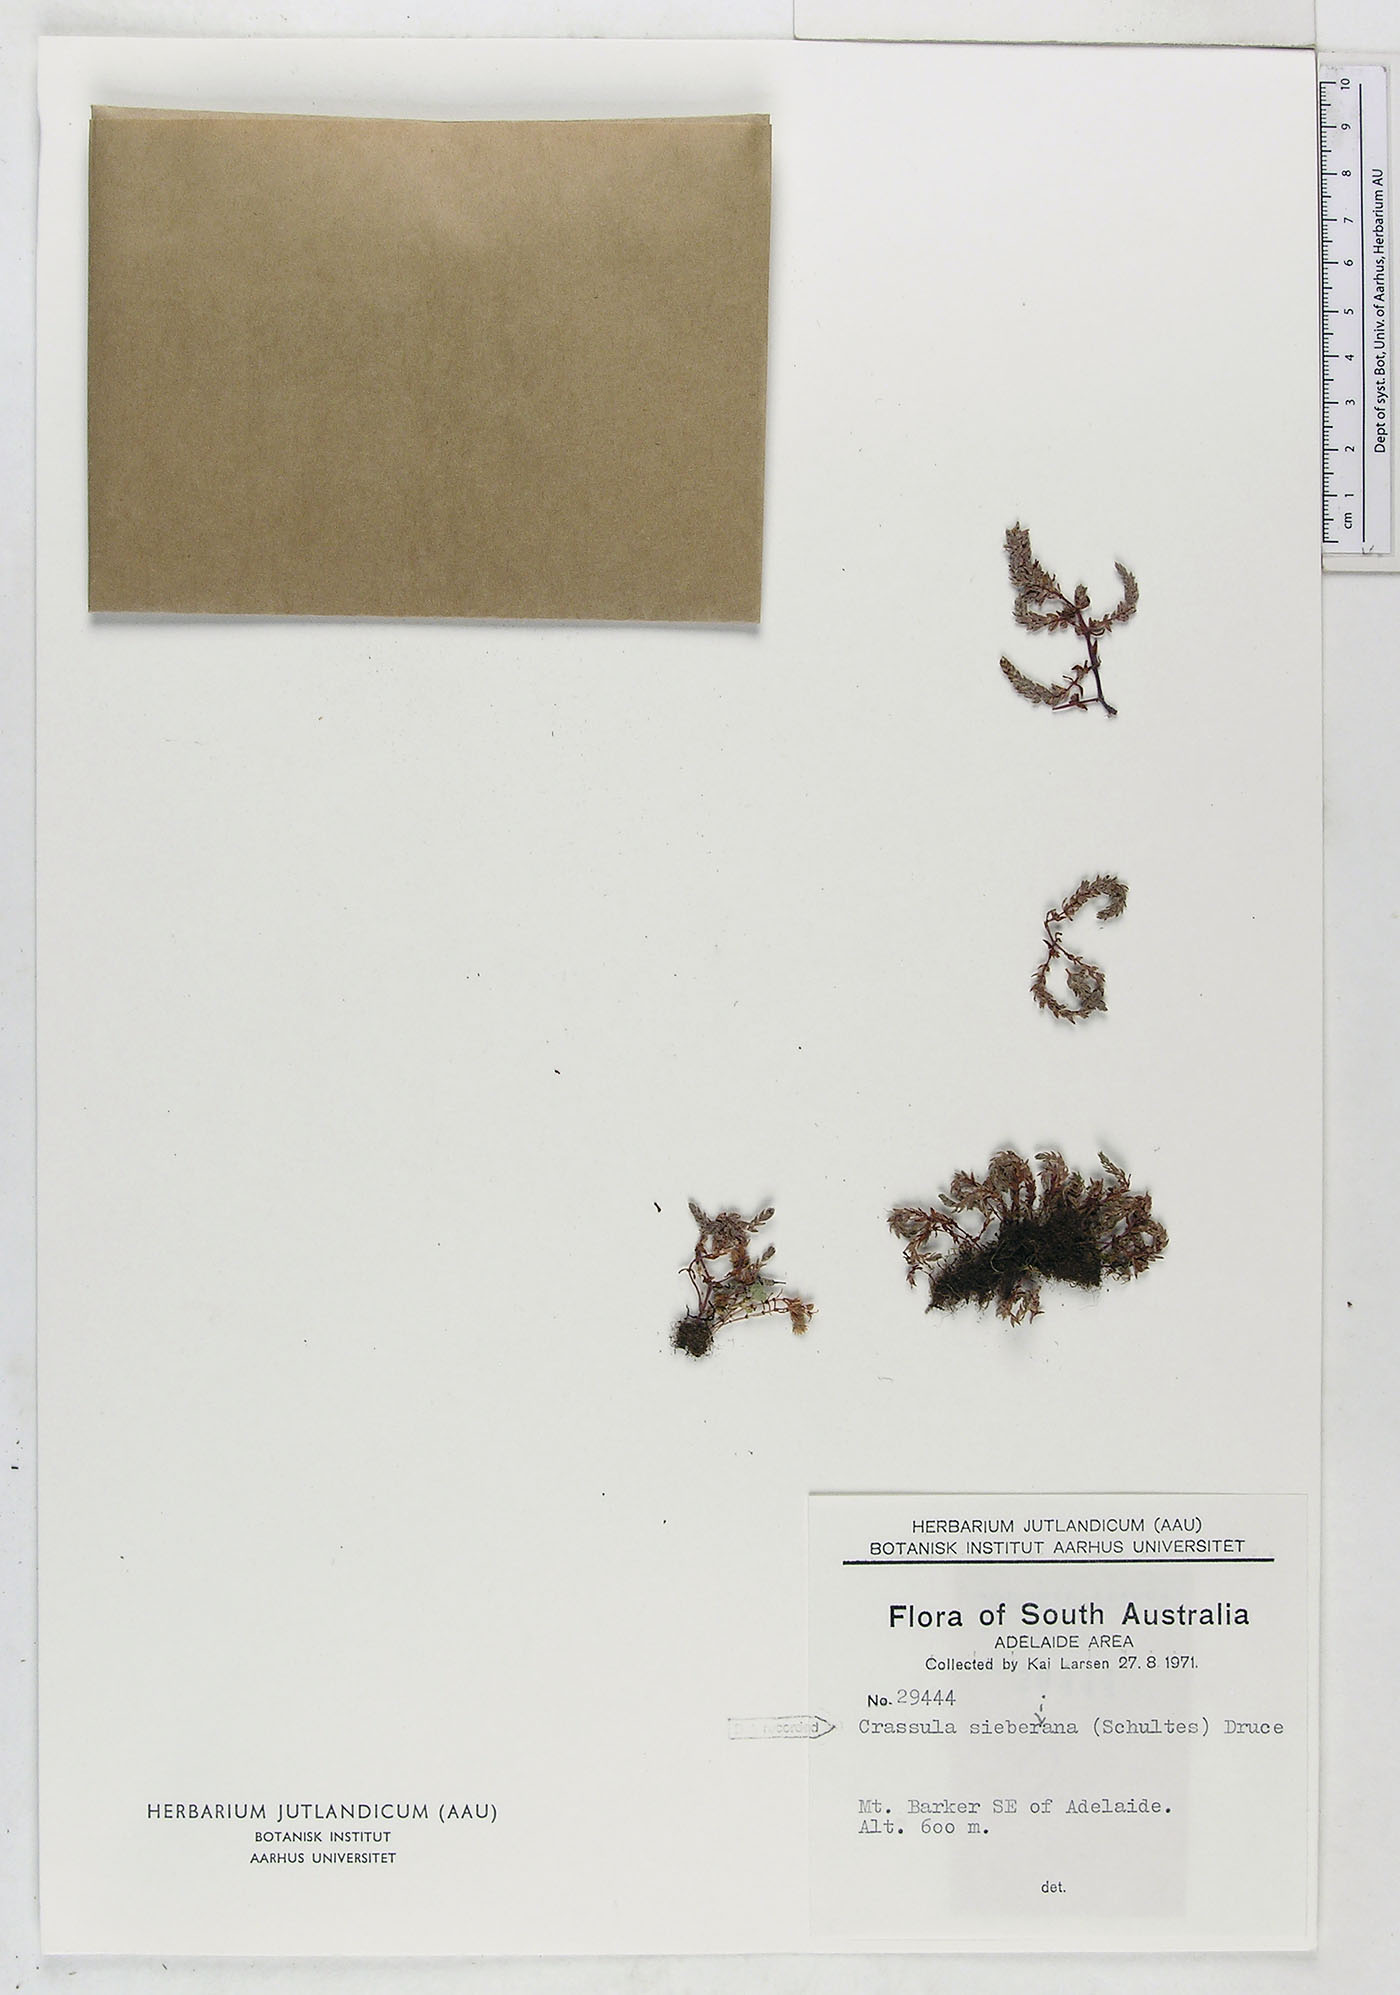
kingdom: Plantae
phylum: Tracheophyta
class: Magnoliopsida
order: Saxifragales
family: Crassulaceae
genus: Crassula
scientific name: Crassula sieberiana
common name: Siberian pygmyweed
